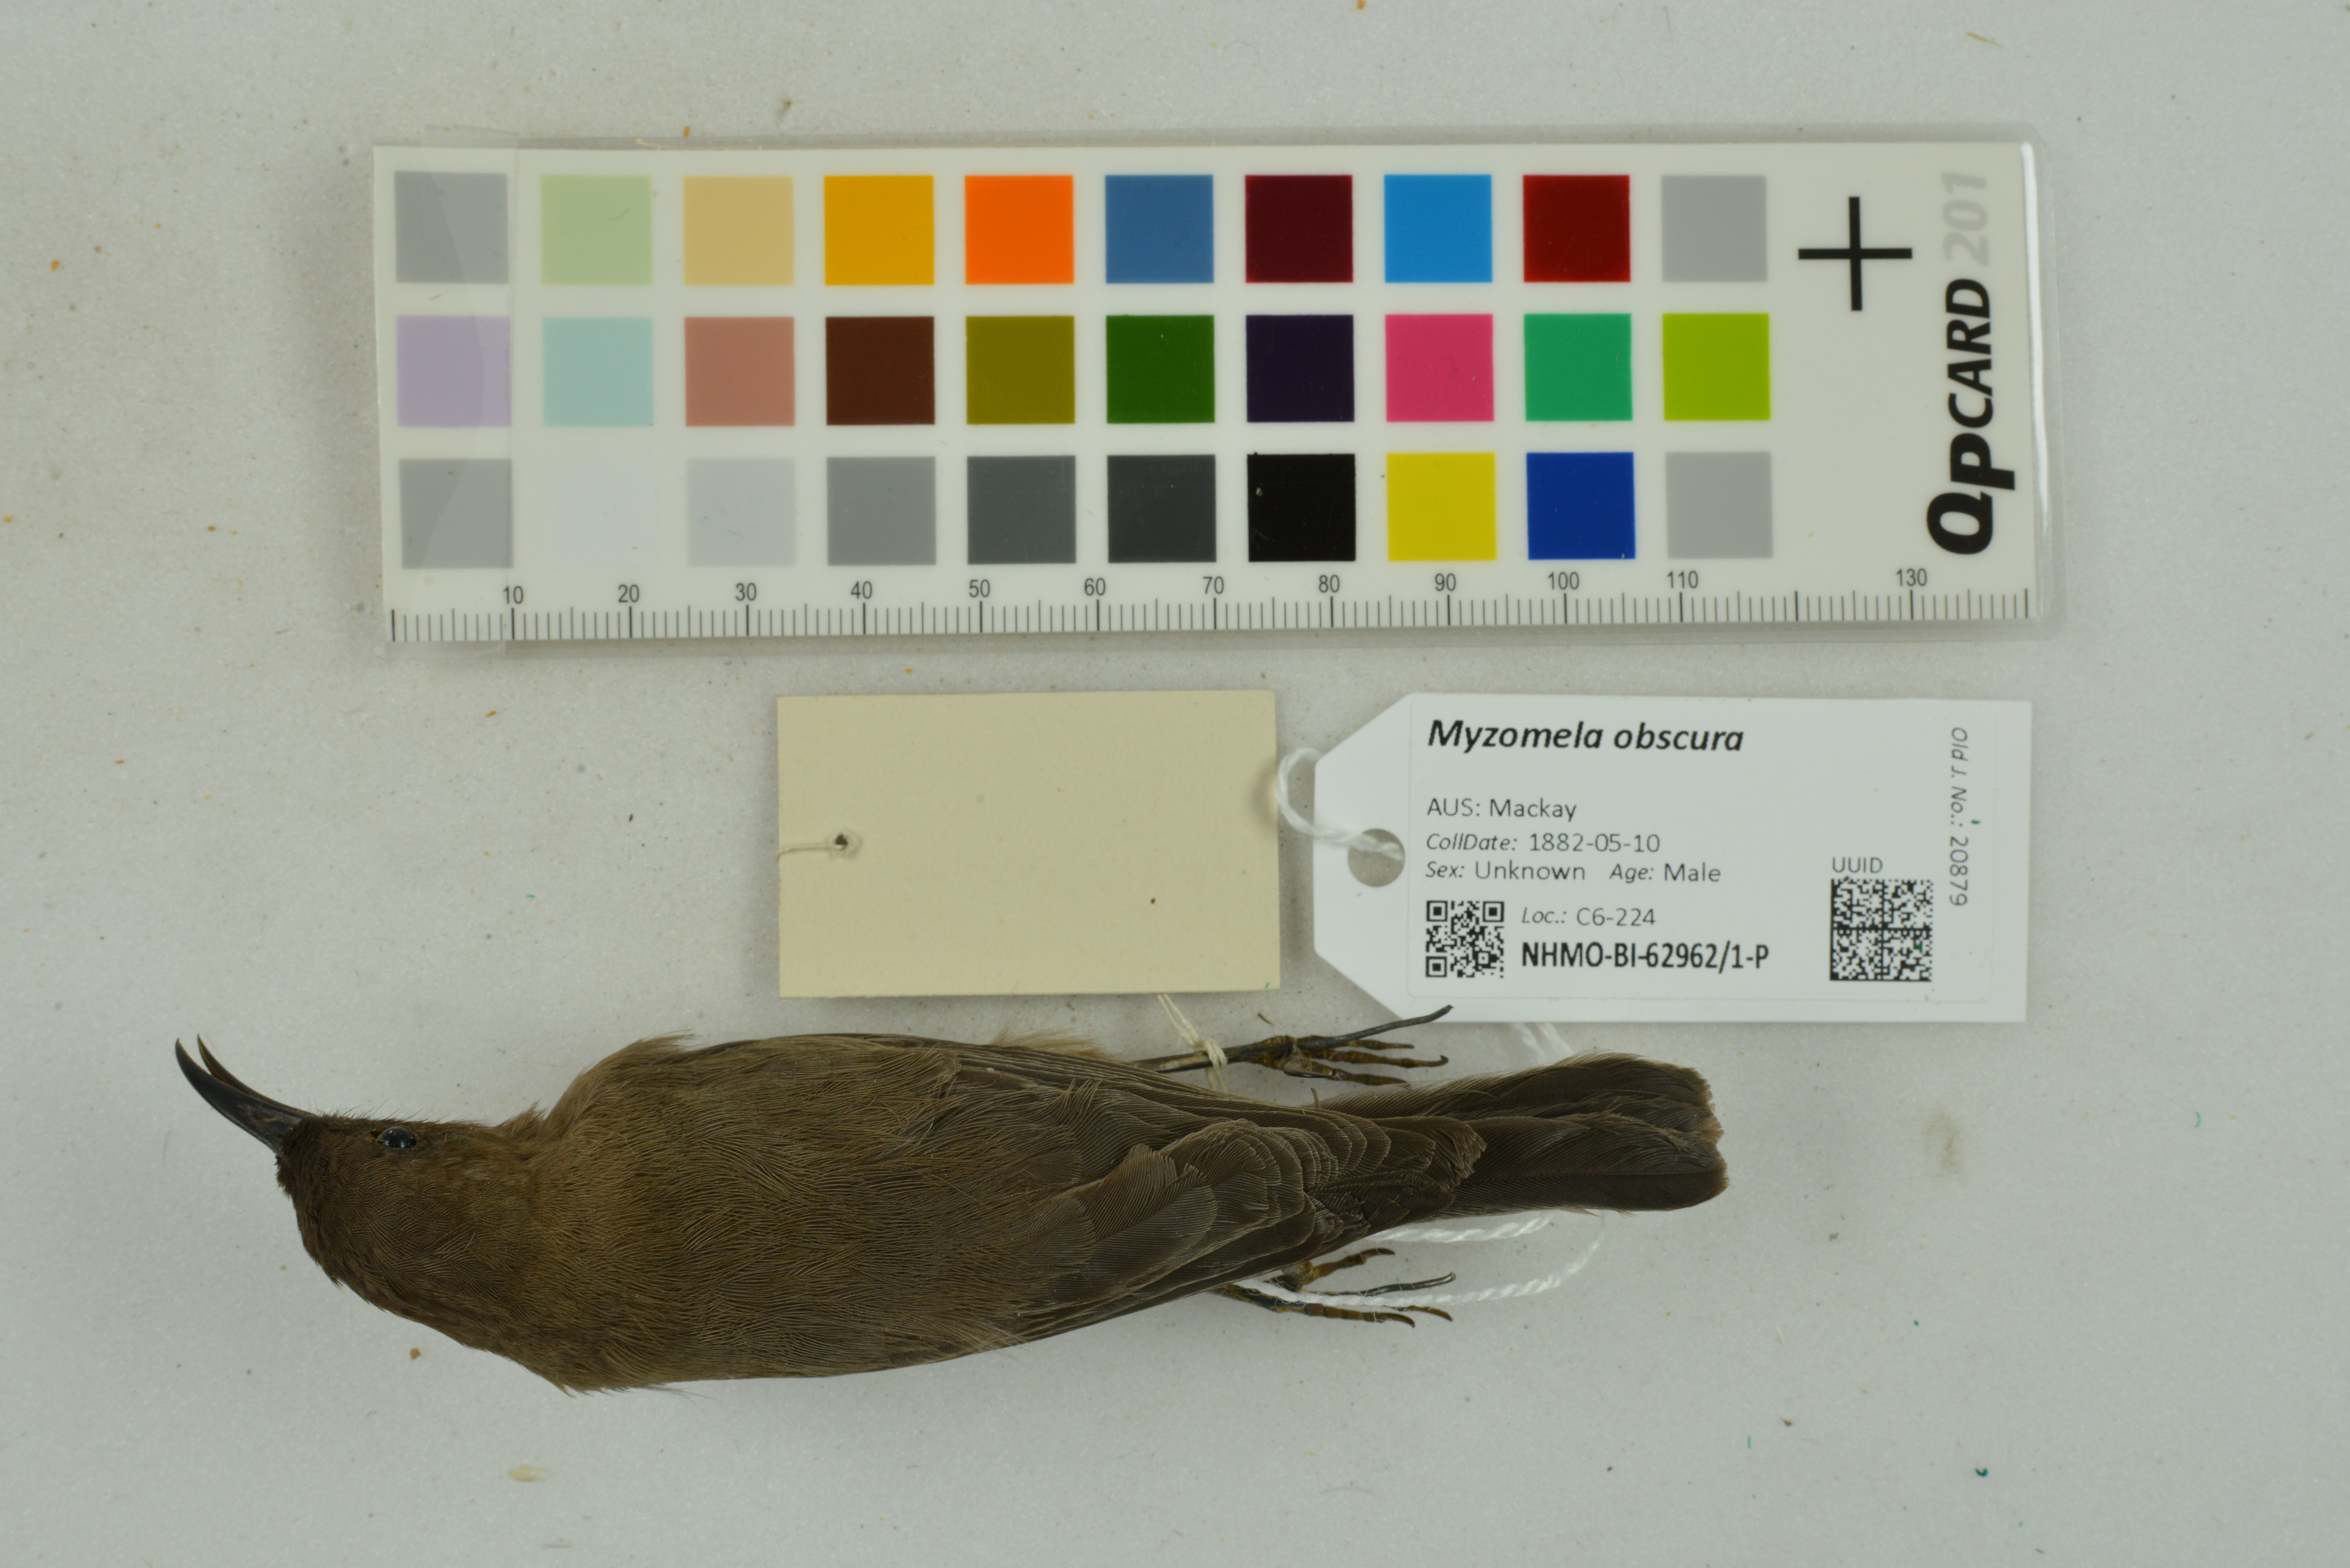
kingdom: Animalia
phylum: Chordata
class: Aves
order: Passeriformes
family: Meliphagidae
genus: Myzomela
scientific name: Myzomela obscura
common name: Dusky myzomela
